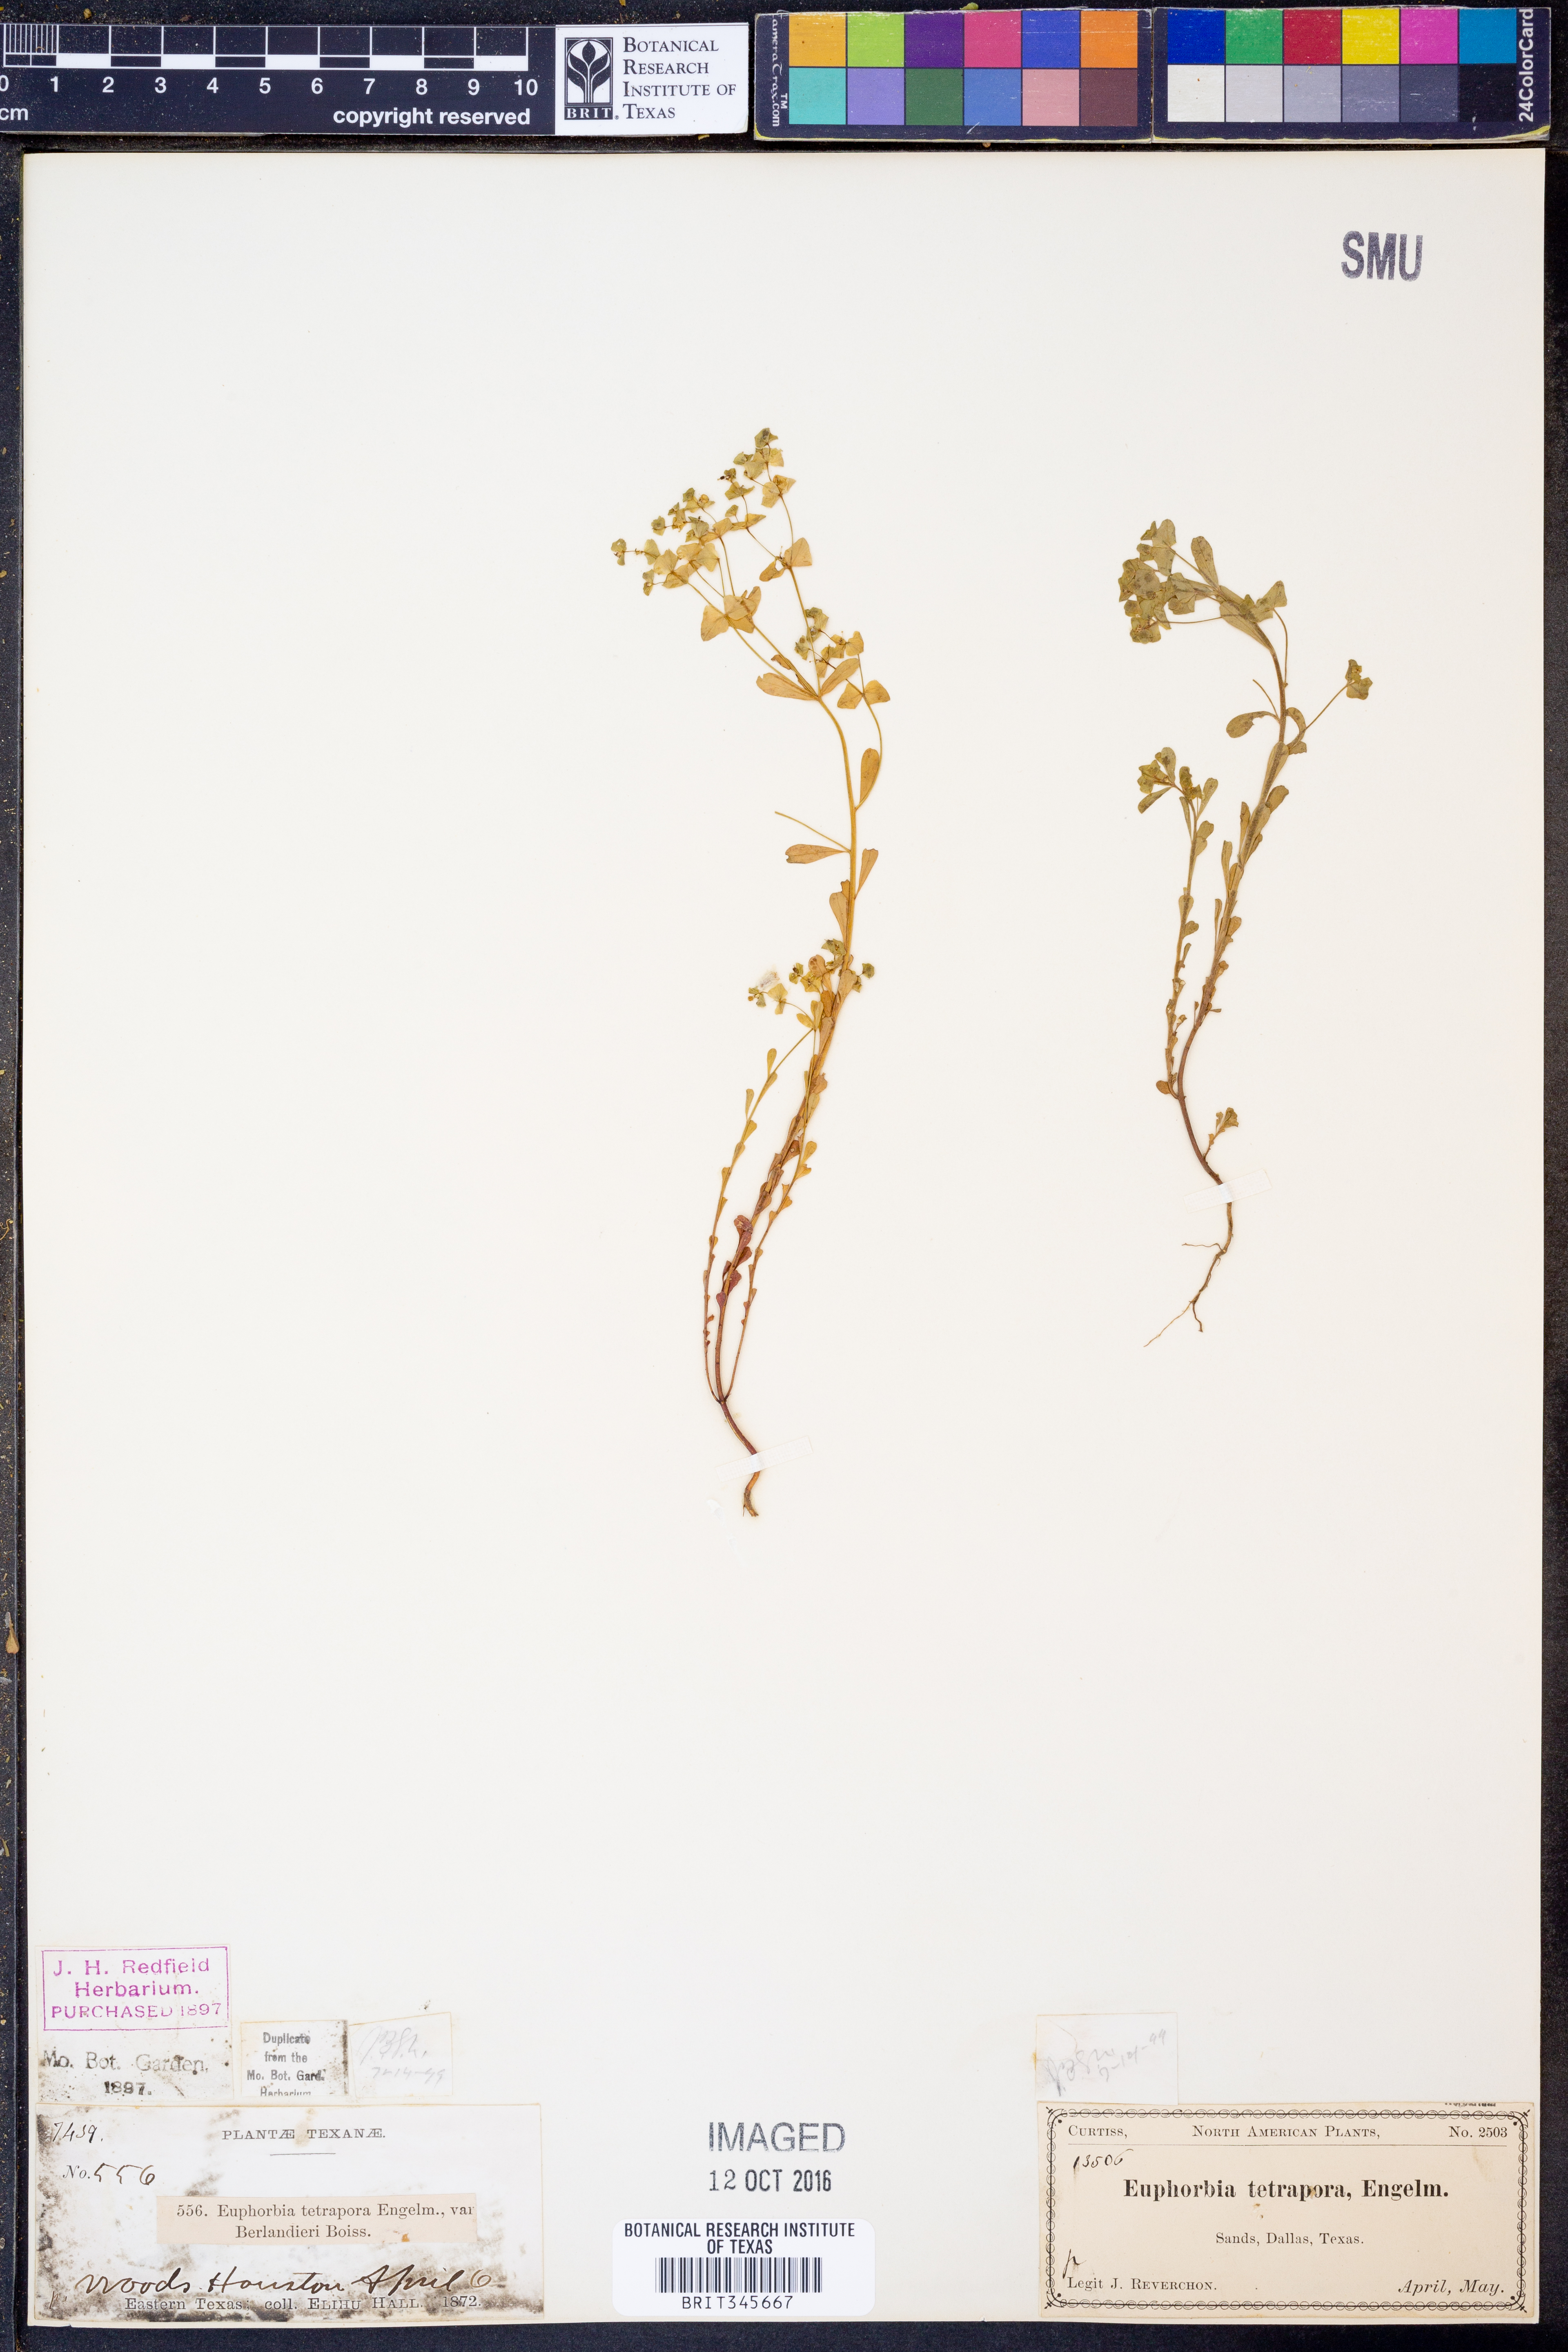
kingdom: Plantae
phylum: Tracheophyta
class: Magnoliopsida
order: Malpighiales
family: Euphorbiaceae
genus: Euphorbia
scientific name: Euphorbia tetrapora
